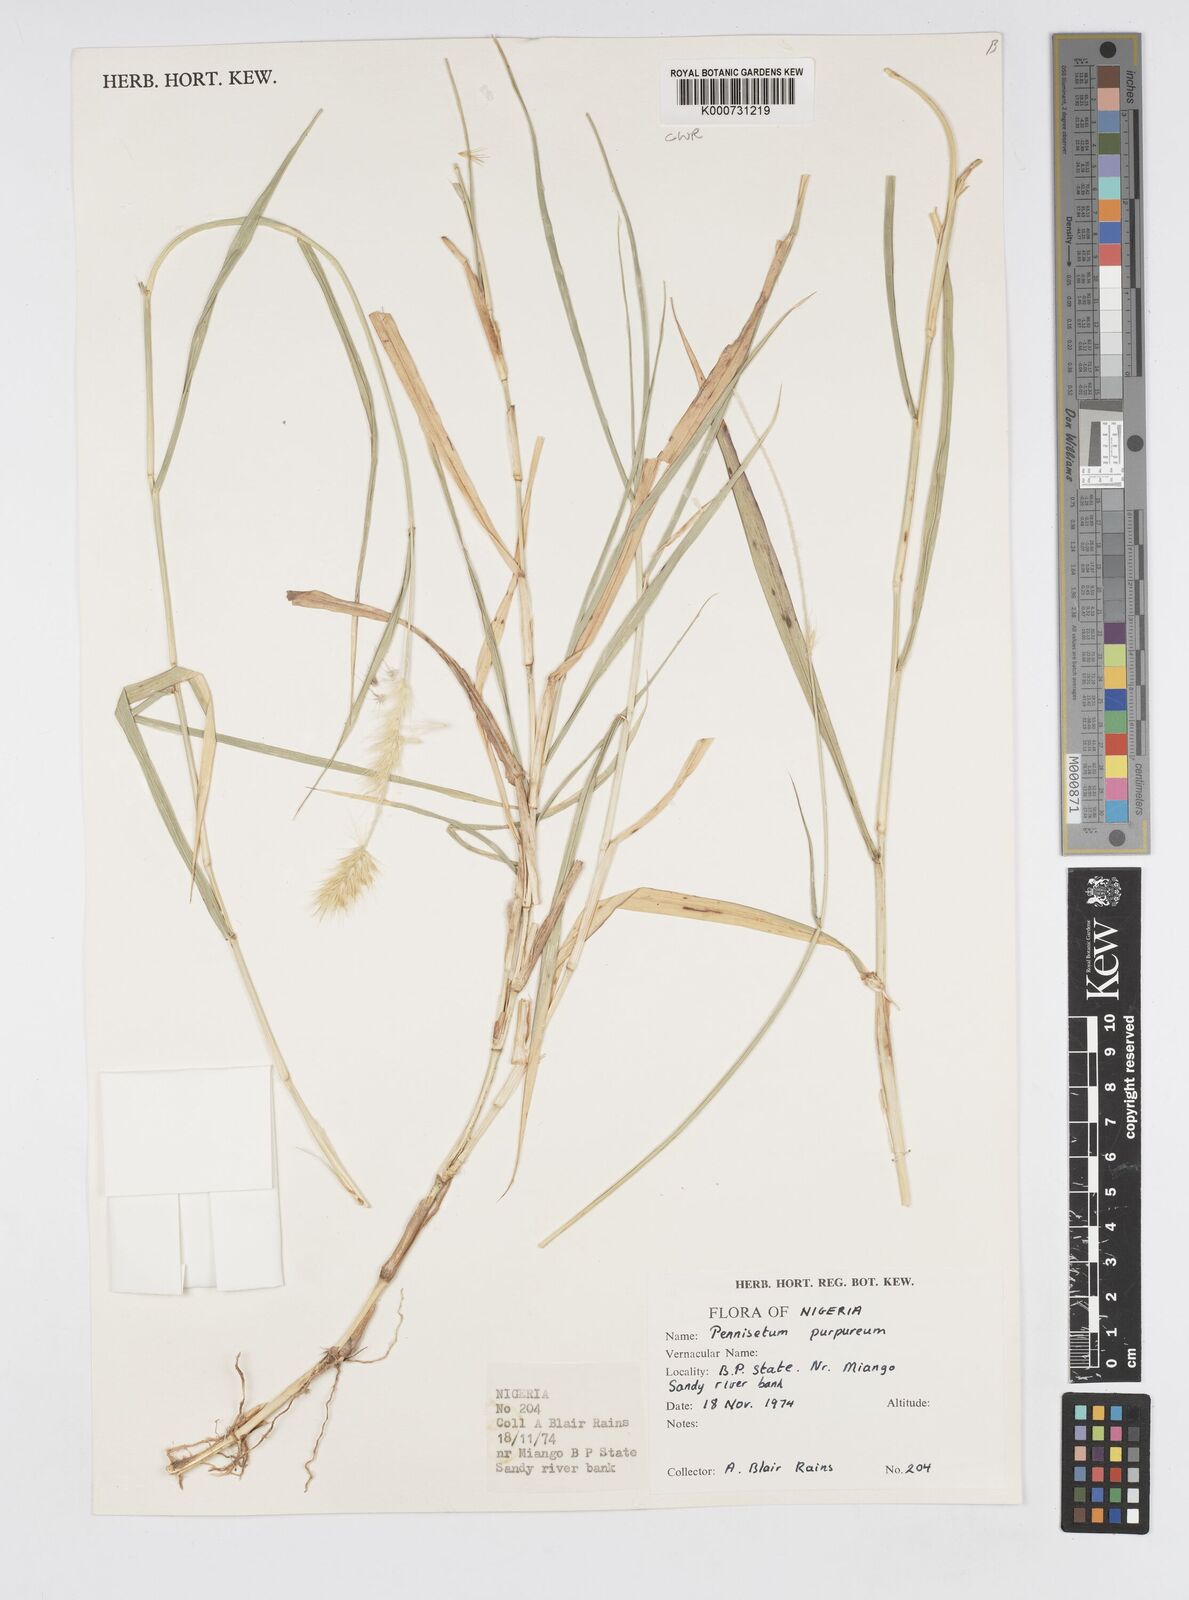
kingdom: Plantae
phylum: Tracheophyta
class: Liliopsida
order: Poales
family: Poaceae
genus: Cenchrus
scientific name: Cenchrus purpureus
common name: Elephant grass
